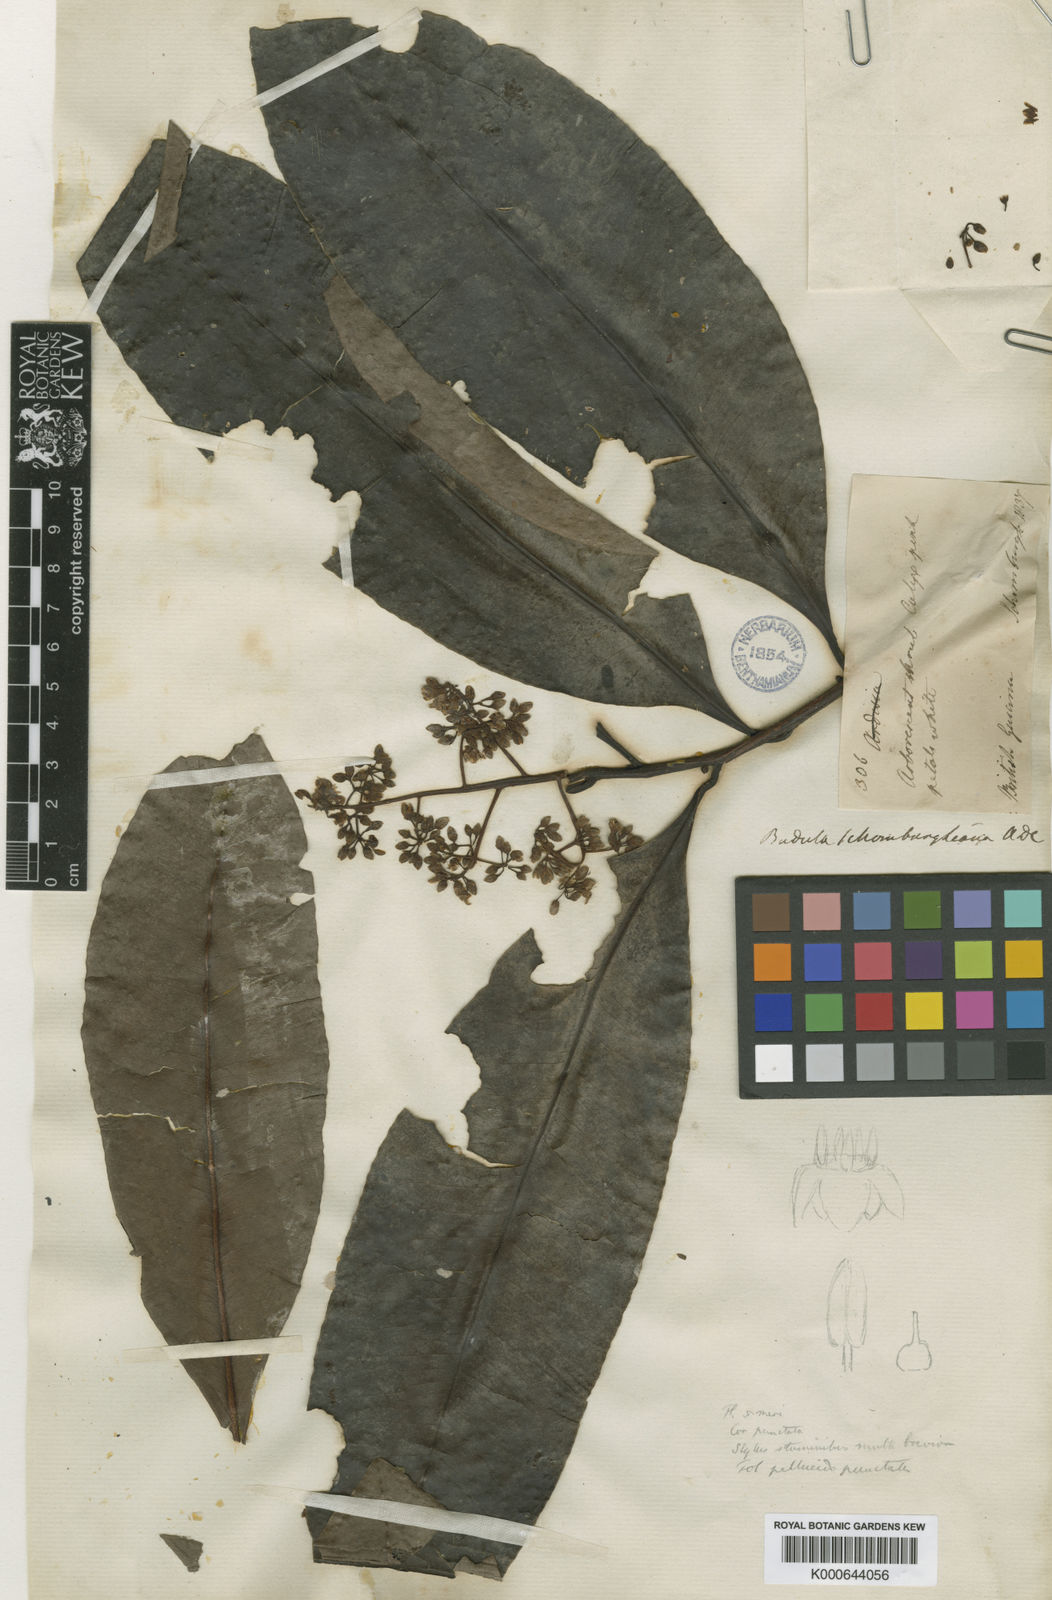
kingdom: Plantae
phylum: Tracheophyta
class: Magnoliopsida
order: Ericales
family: Primulaceae
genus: Stylogyne
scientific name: Stylogyne orinocensis
